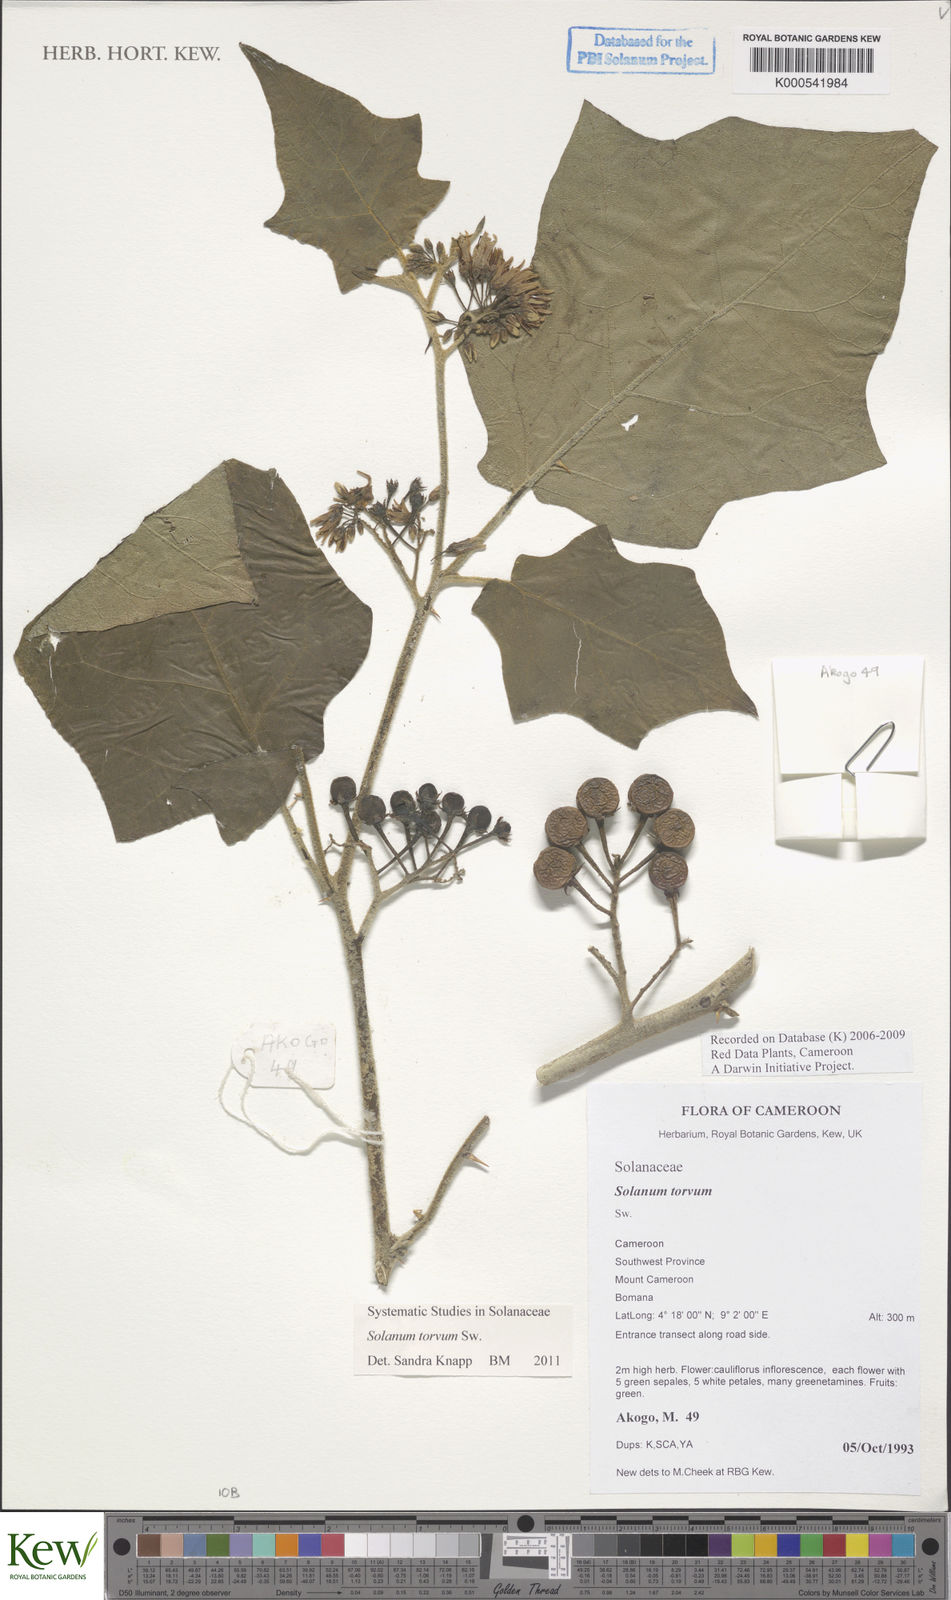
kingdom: Plantae
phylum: Tracheophyta
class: Magnoliopsida
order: Solanales
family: Solanaceae
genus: Solanum
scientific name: Solanum torvum
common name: Turkey berry
